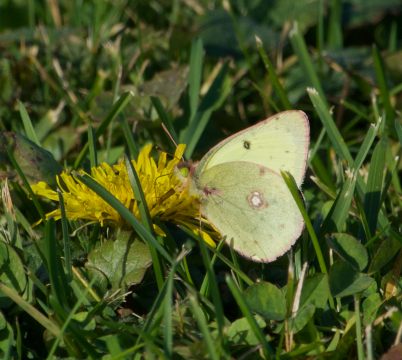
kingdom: Animalia
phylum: Arthropoda
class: Insecta
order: Lepidoptera
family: Pieridae
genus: Colias
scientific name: Colias philodice
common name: Clouded Sulphur
